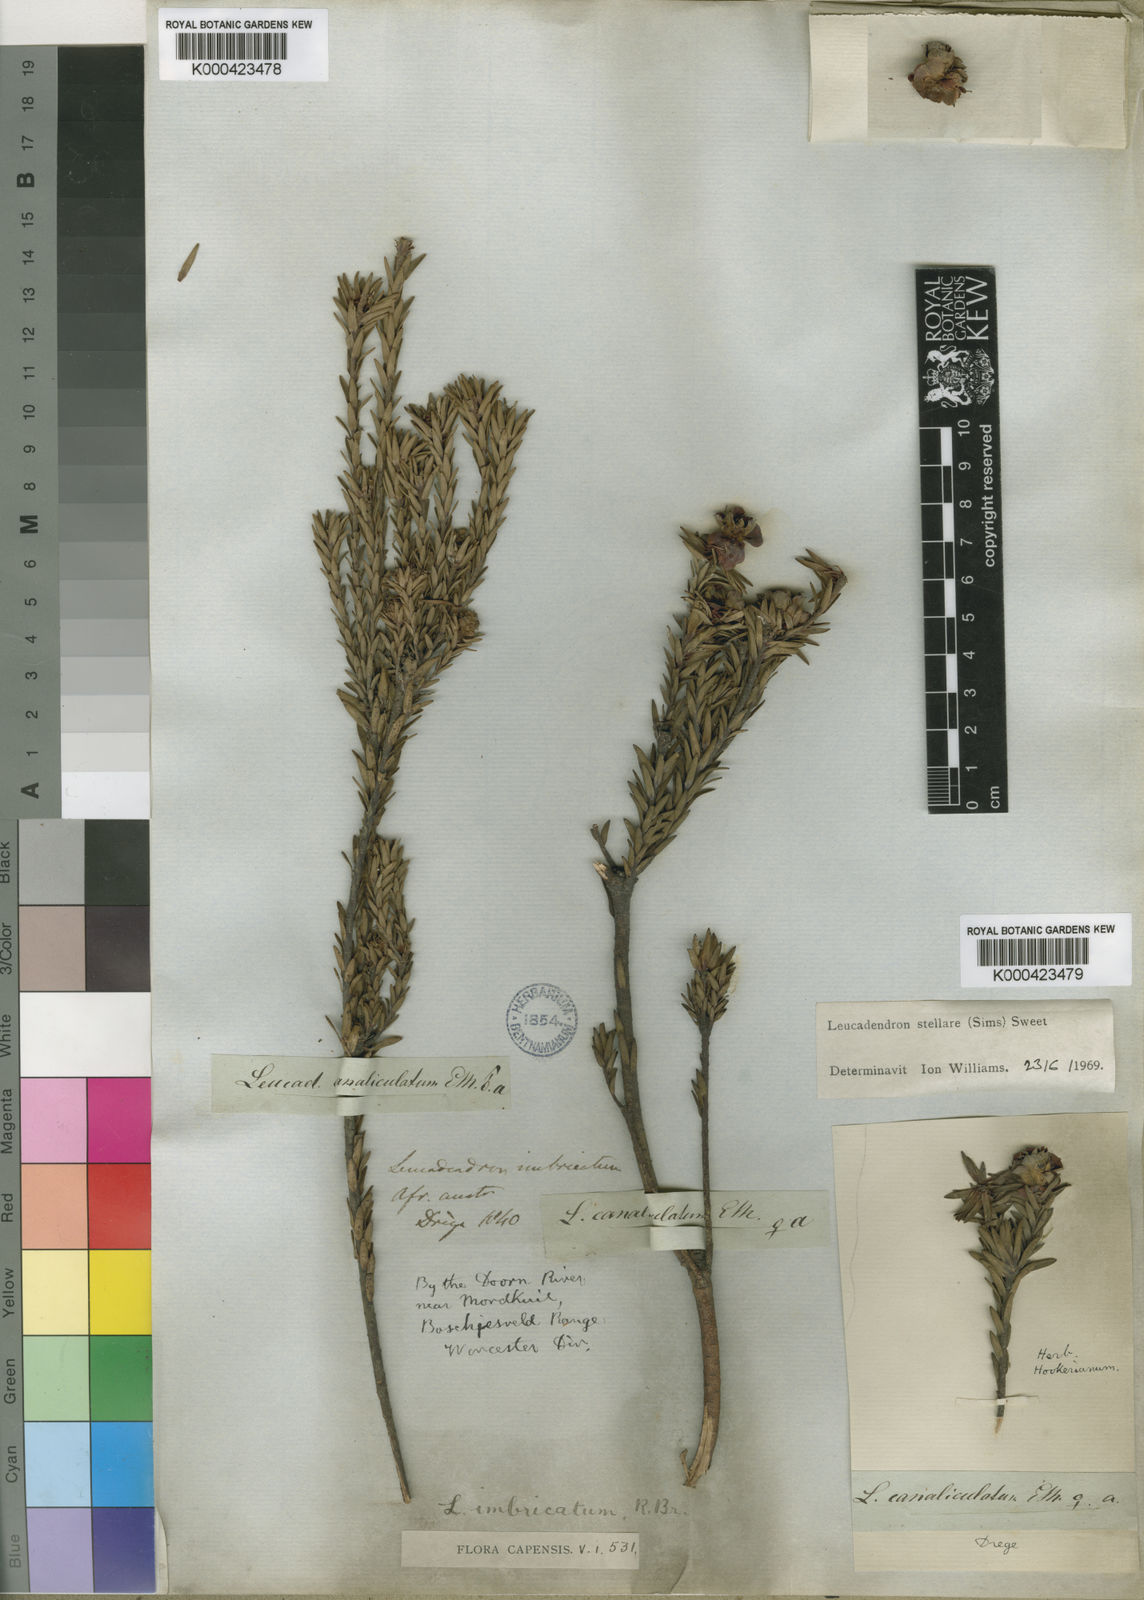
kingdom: Plantae
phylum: Tracheophyta
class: Magnoliopsida
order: Proteales
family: Proteaceae
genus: Leucadendron
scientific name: Leucadendron
